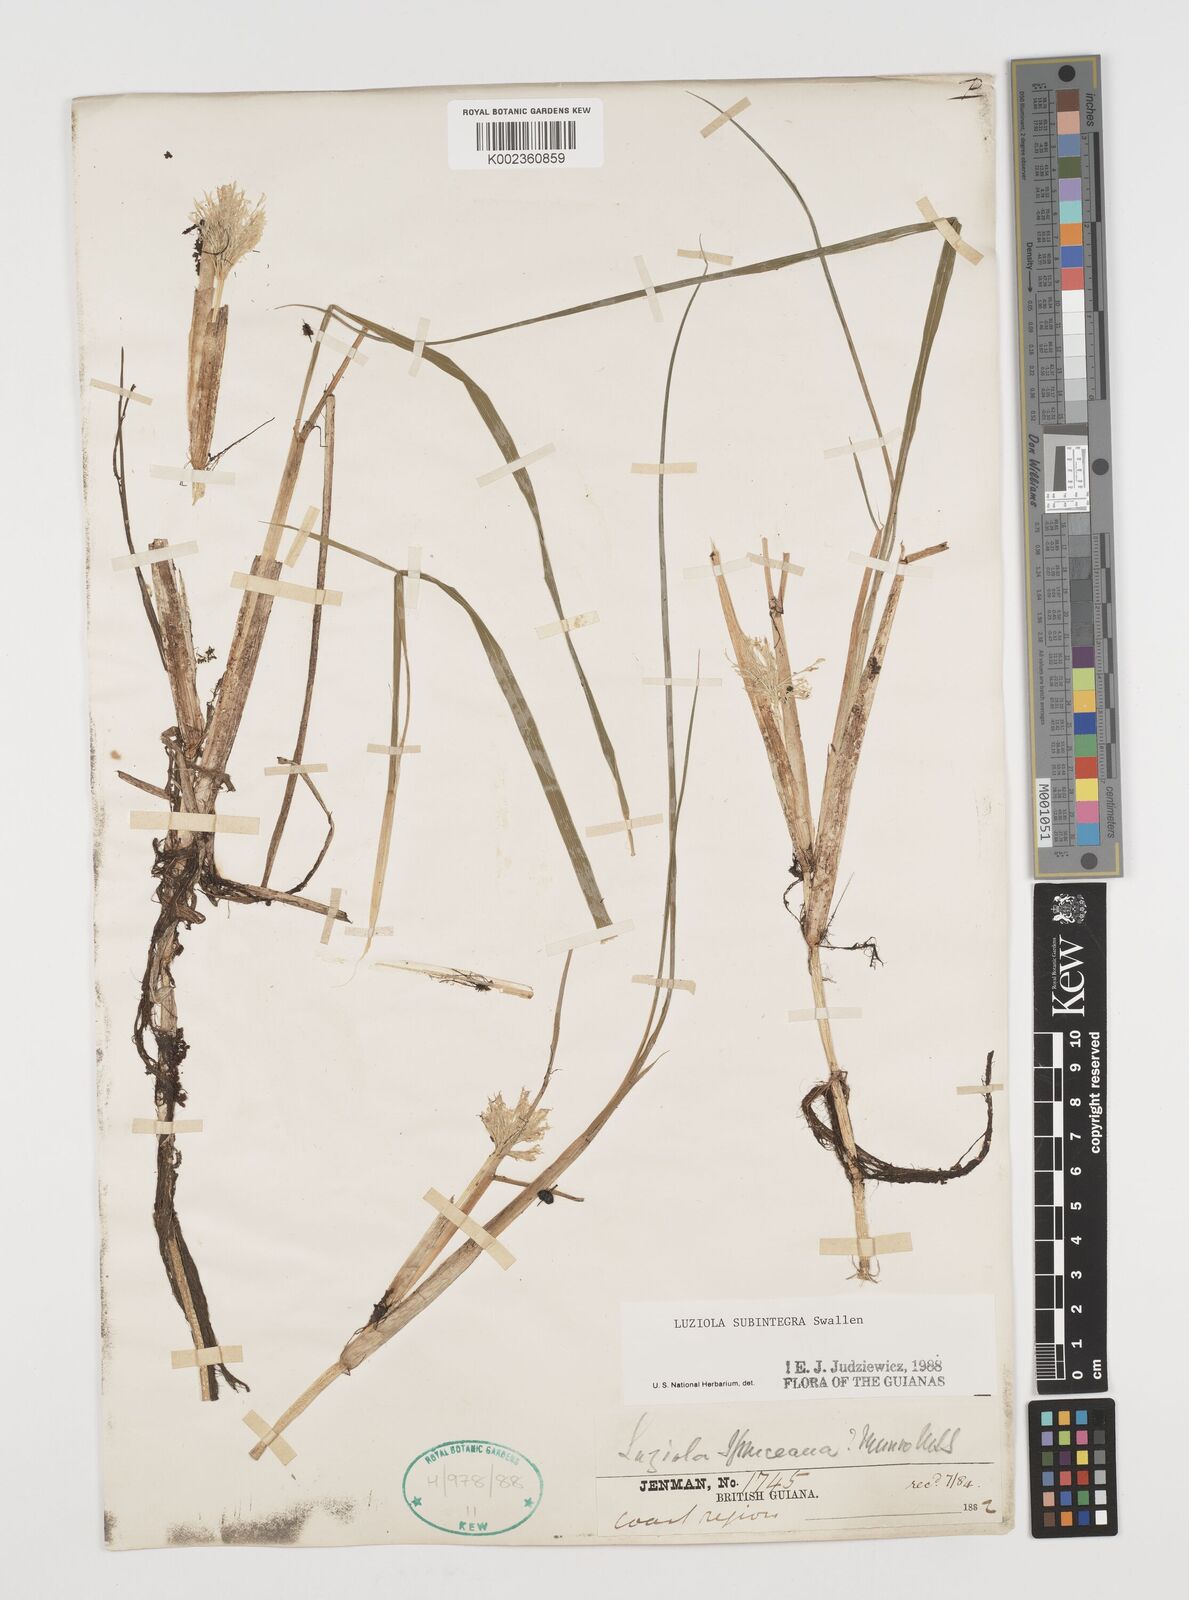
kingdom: Plantae
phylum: Tracheophyta
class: Liliopsida
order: Poales
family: Poaceae
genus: Luziola
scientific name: Luziola subintegra
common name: Large watergrass
